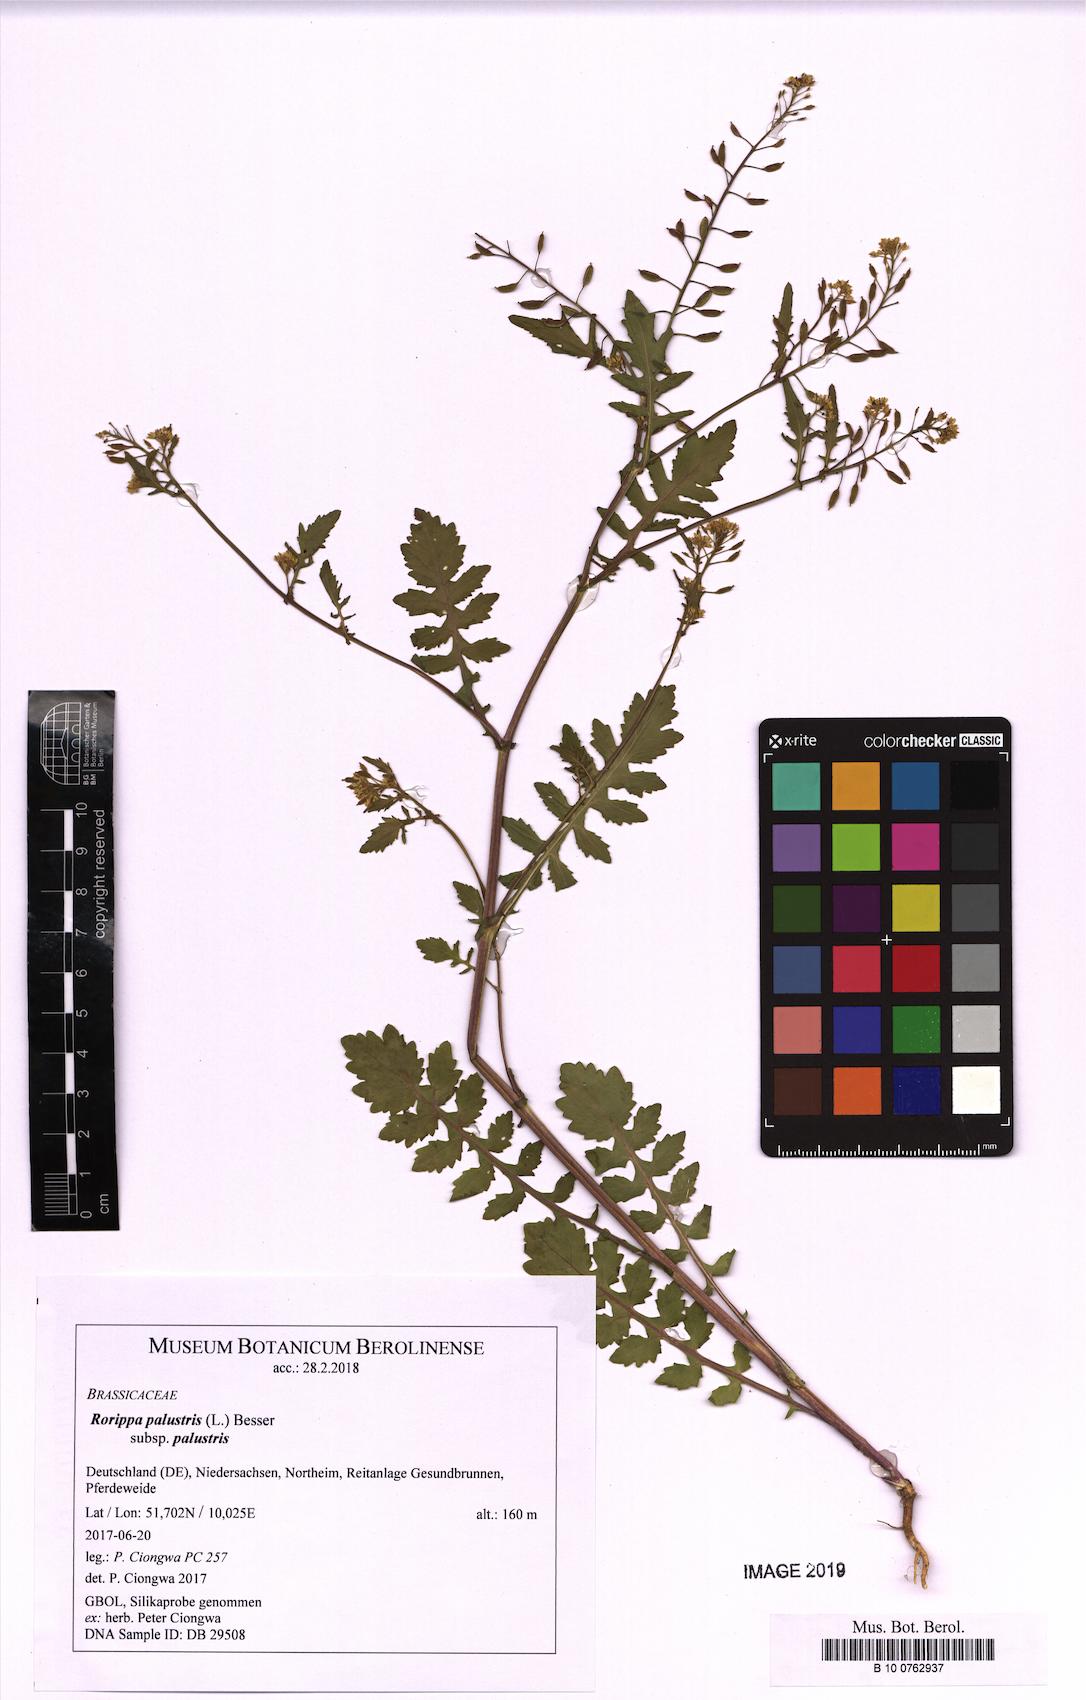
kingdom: Plantae
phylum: Tracheophyta
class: Magnoliopsida
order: Brassicales
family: Brassicaceae
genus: Rorippa
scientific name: Rorippa palustris
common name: Marsh yellow-cress
